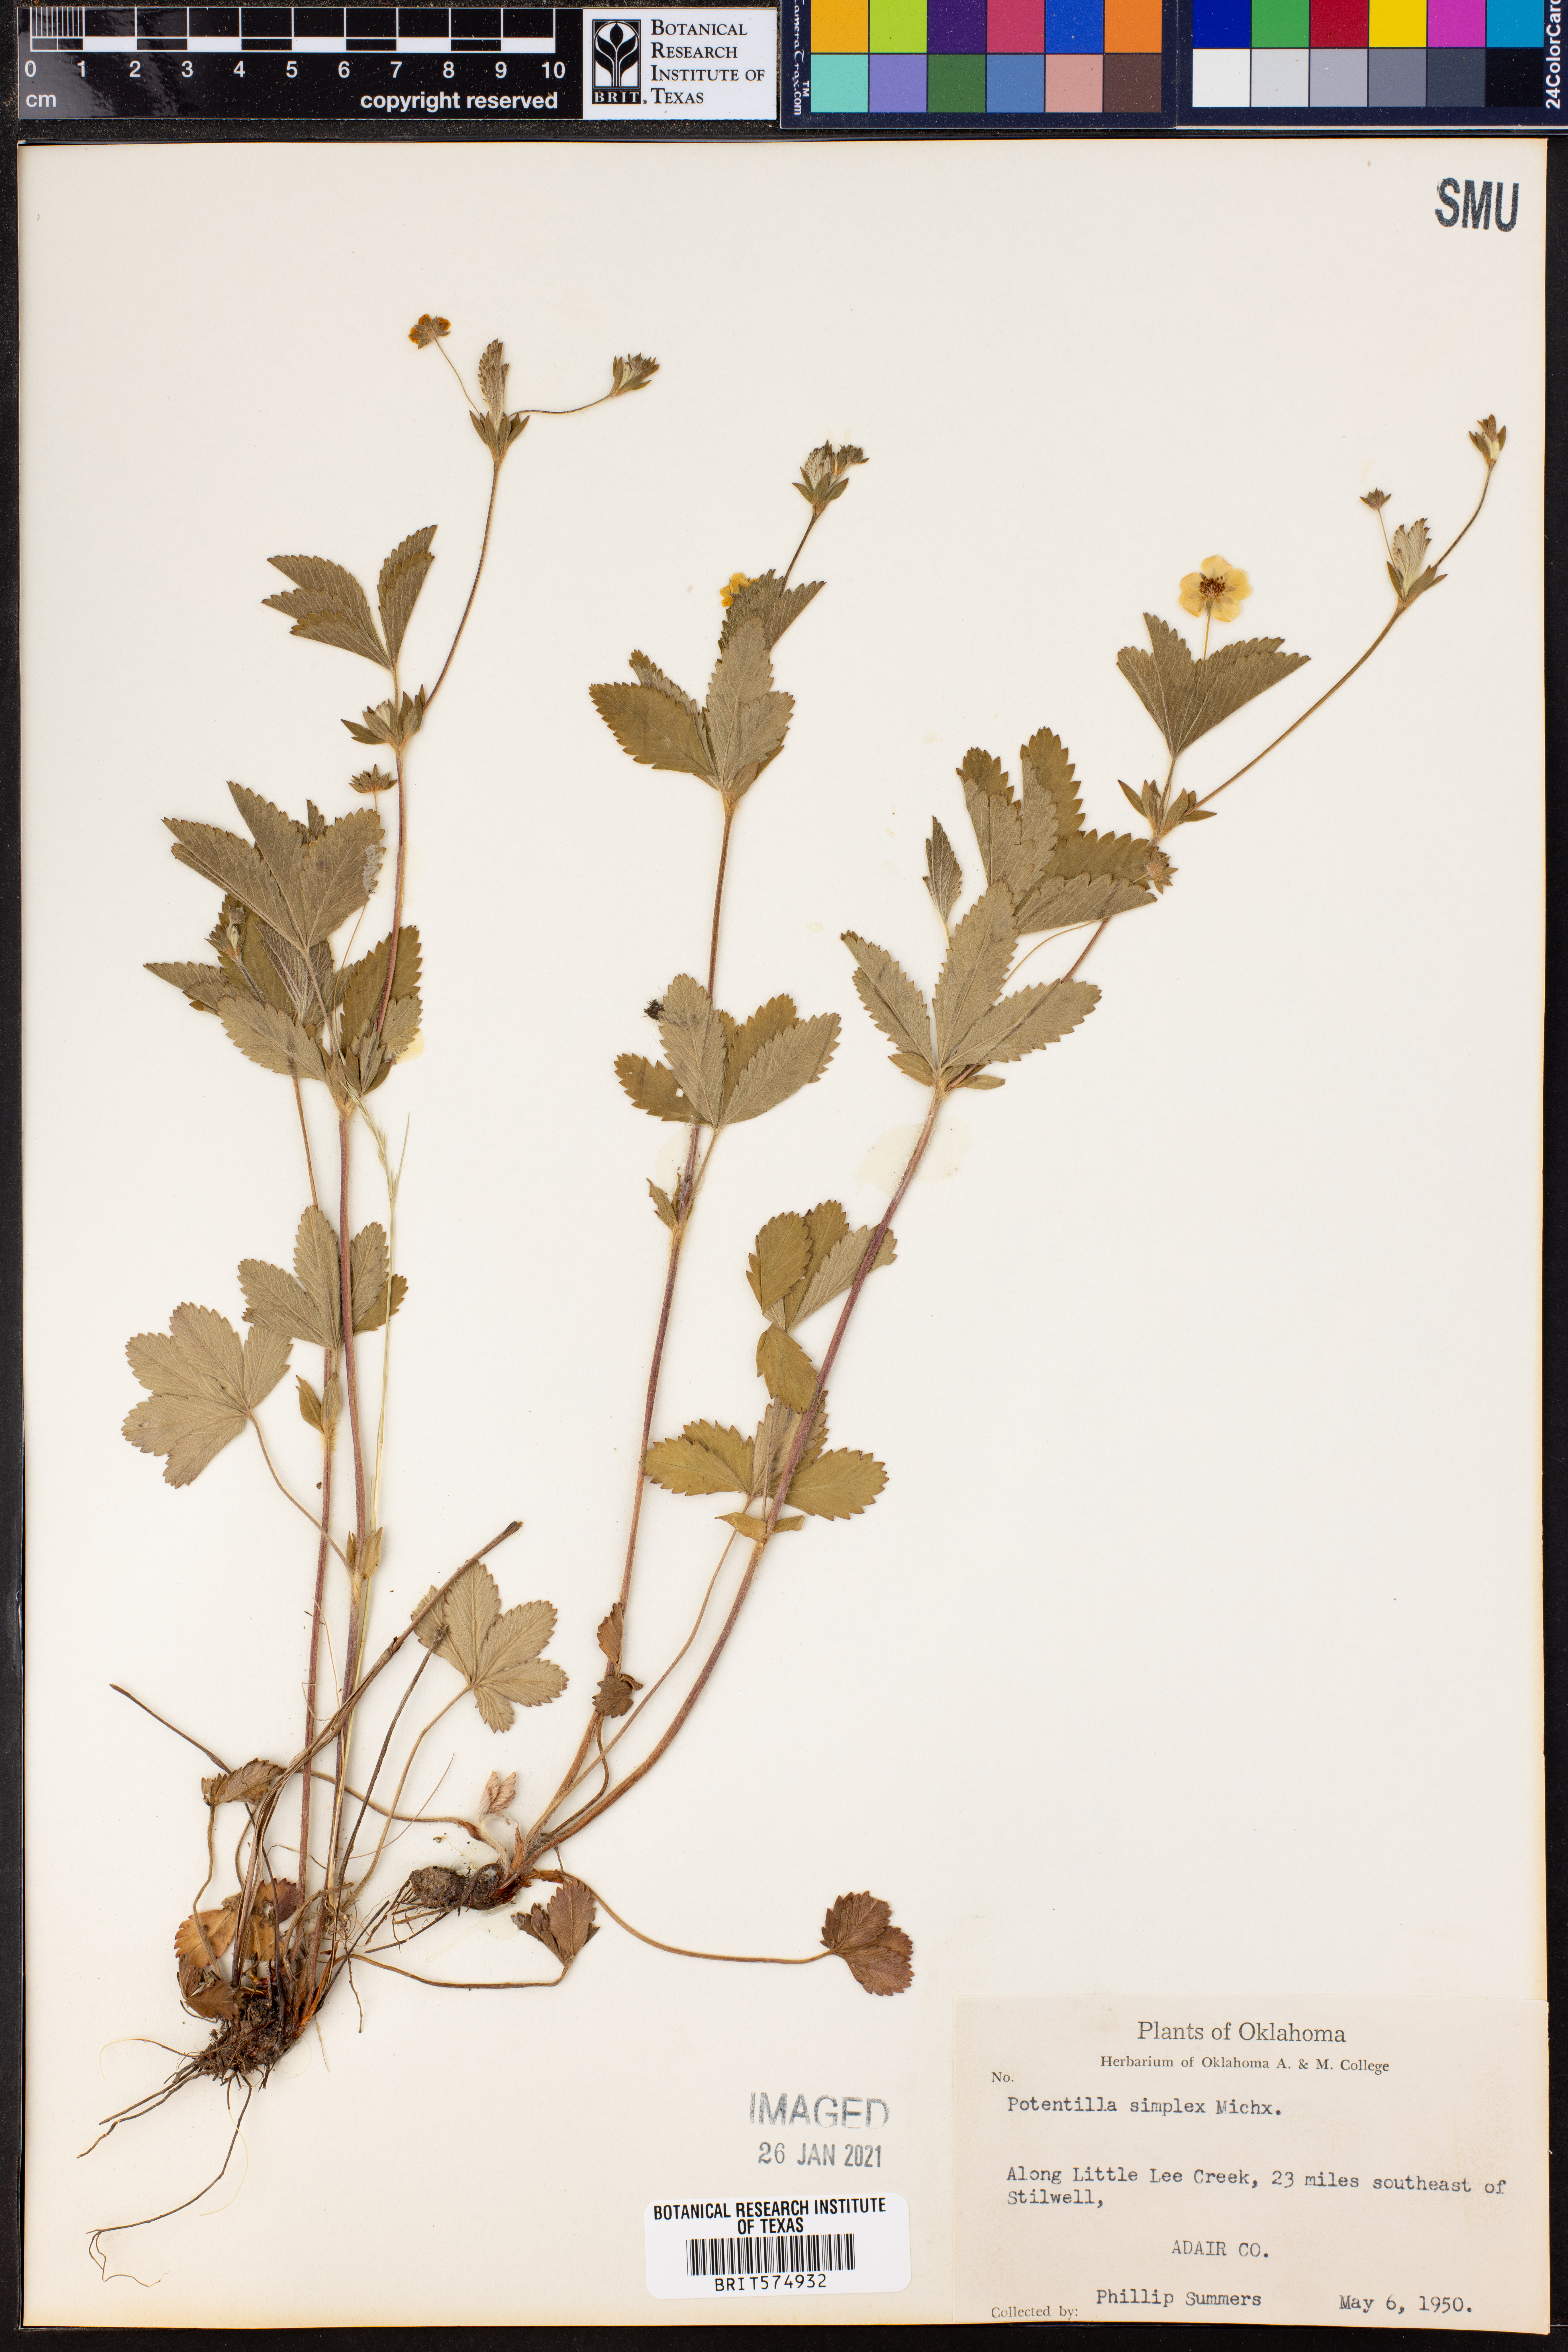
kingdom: Plantae
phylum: Tracheophyta
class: Magnoliopsida
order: Rosales
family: Rosaceae
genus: Potentilla
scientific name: Potentilla simplex
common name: Old field cinquefoil
